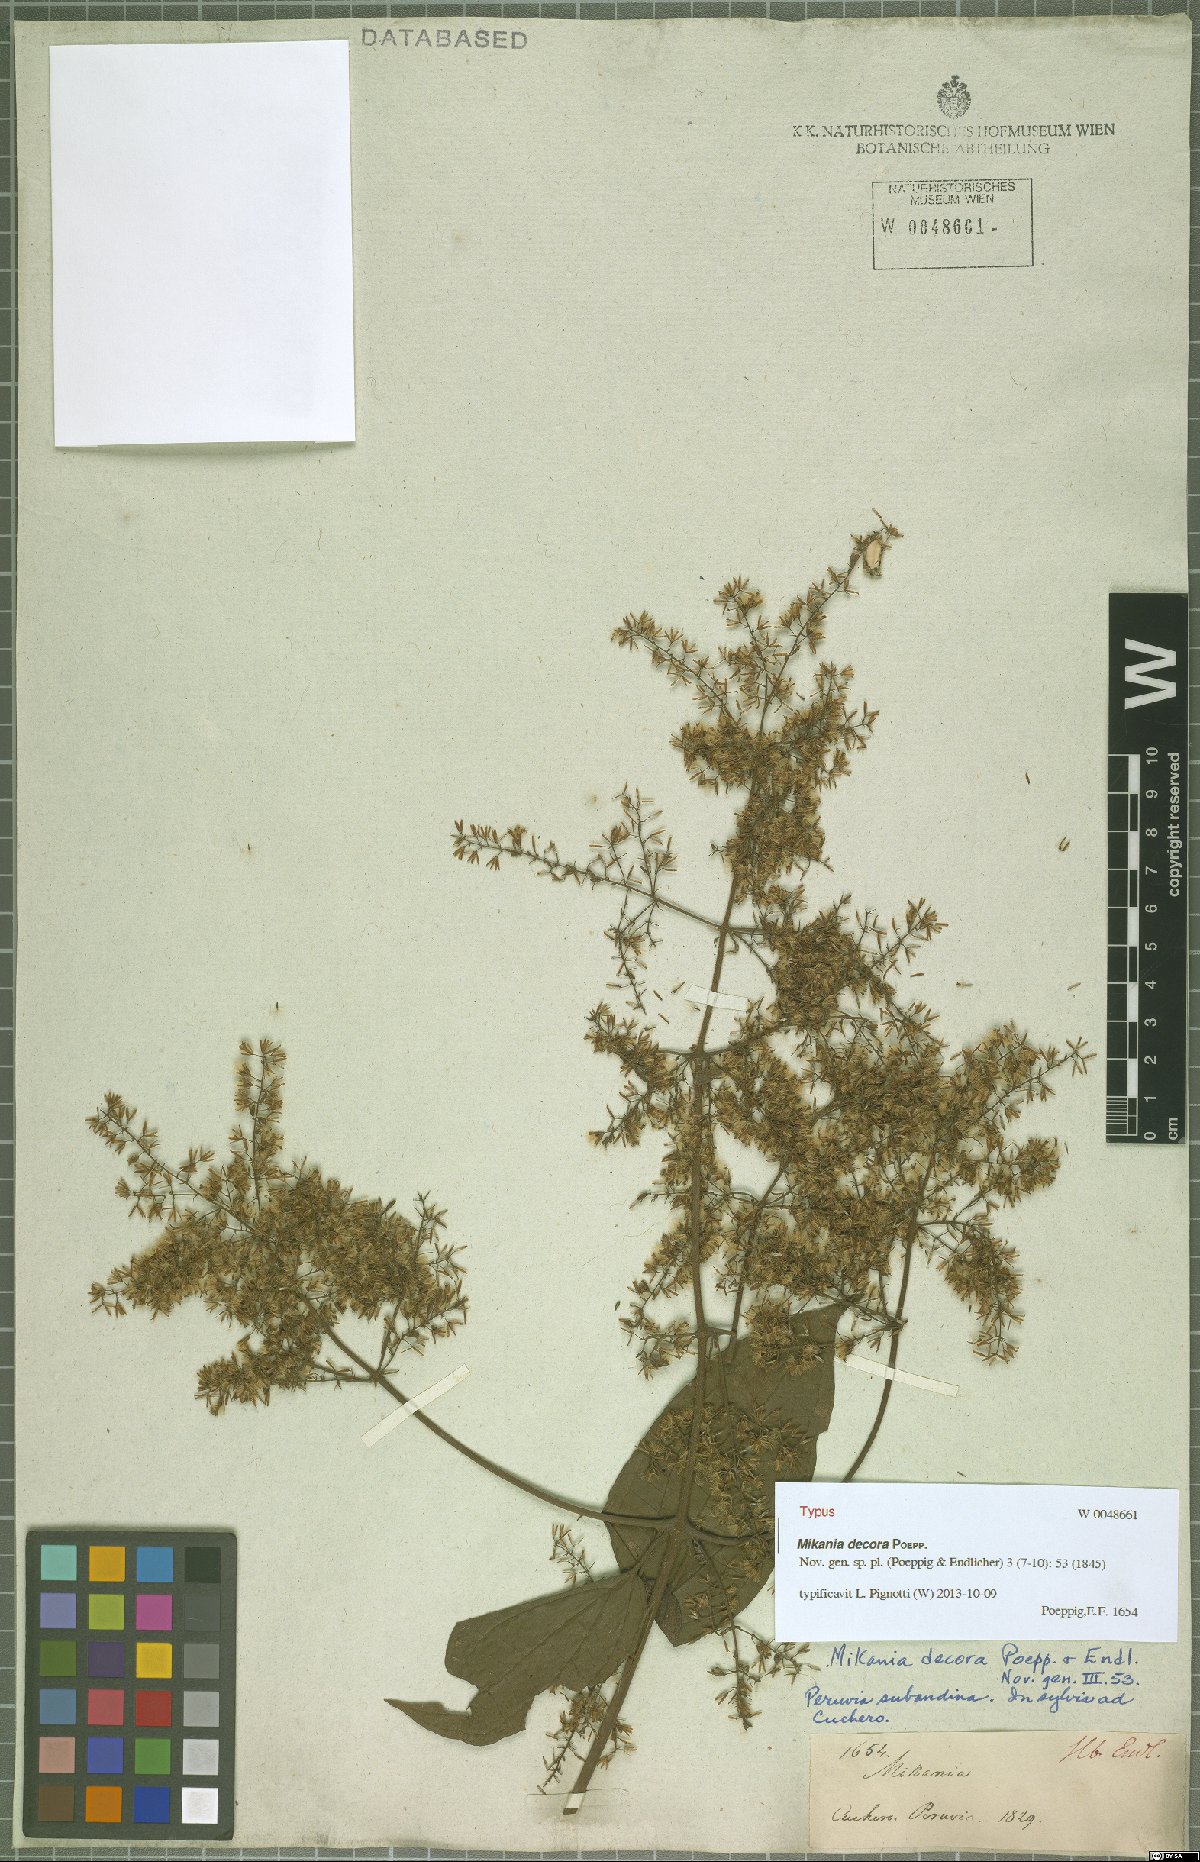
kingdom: Plantae
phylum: Tracheophyta
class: Magnoliopsida
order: Asterales
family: Asteraceae
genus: Mikania
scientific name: Mikania decora
